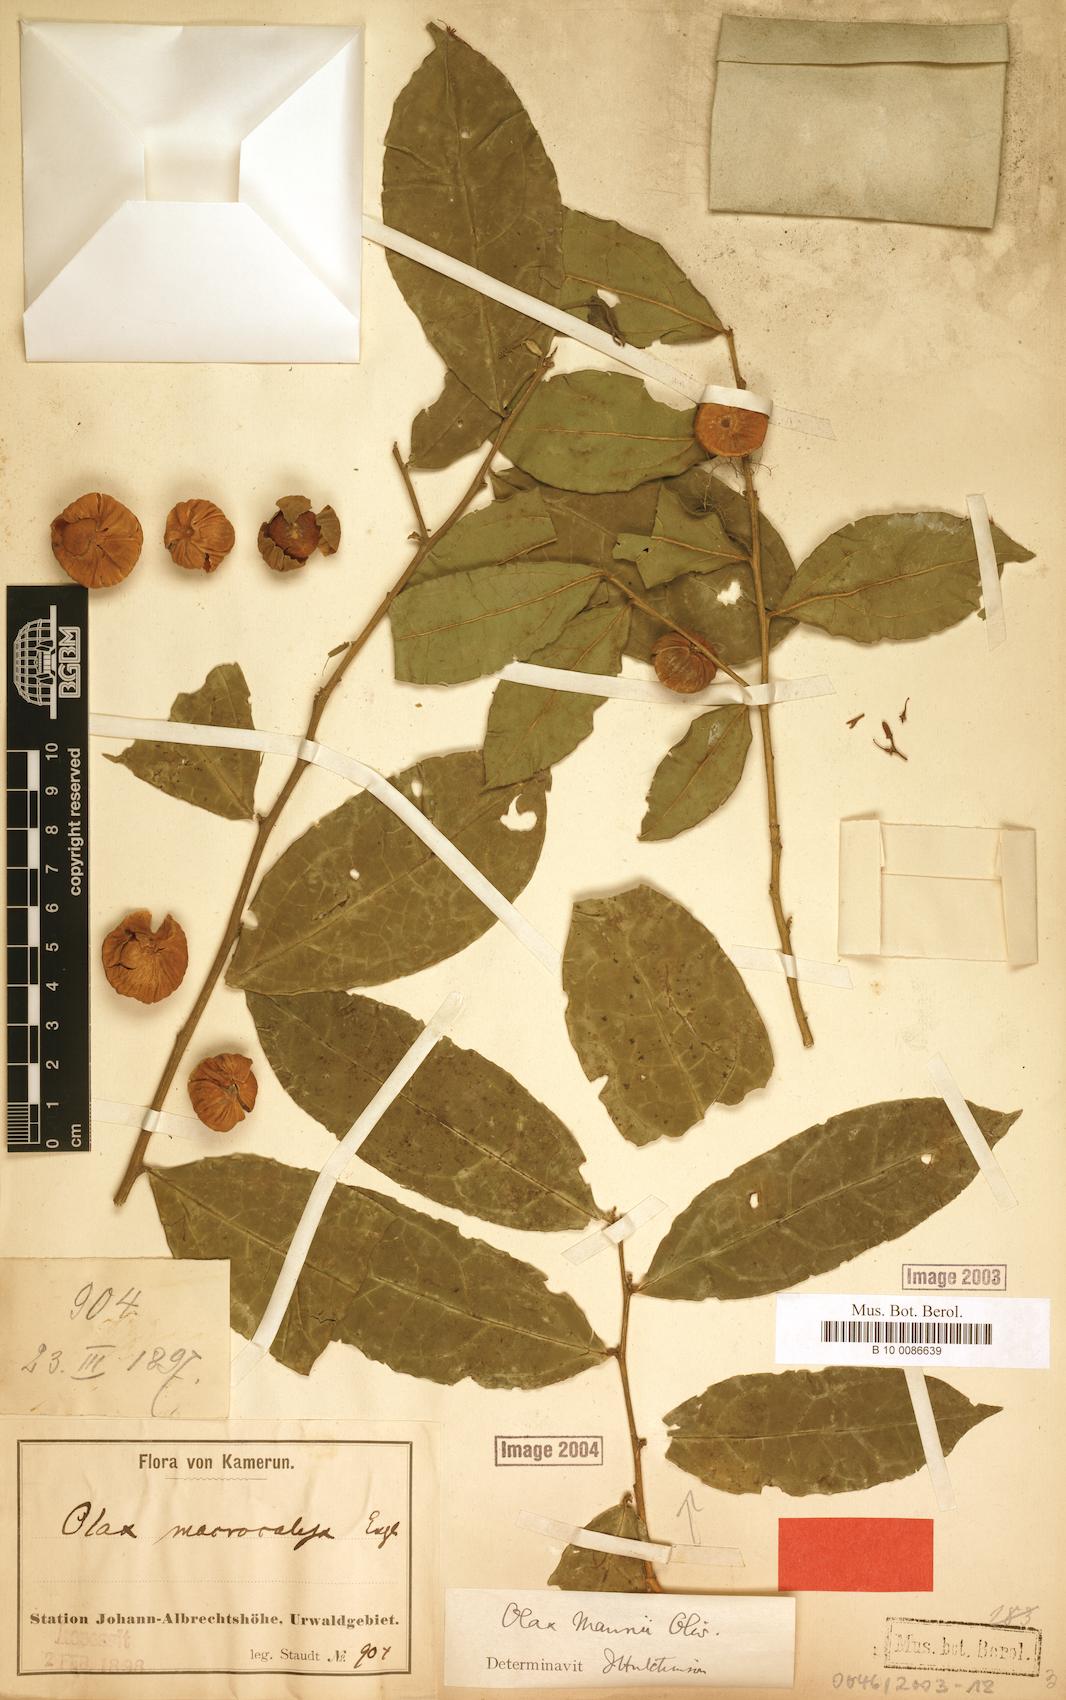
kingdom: Plantae
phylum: Tracheophyta
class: Magnoliopsida
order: Santalales
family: Olacaceae
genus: Olax
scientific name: Olax mannii
